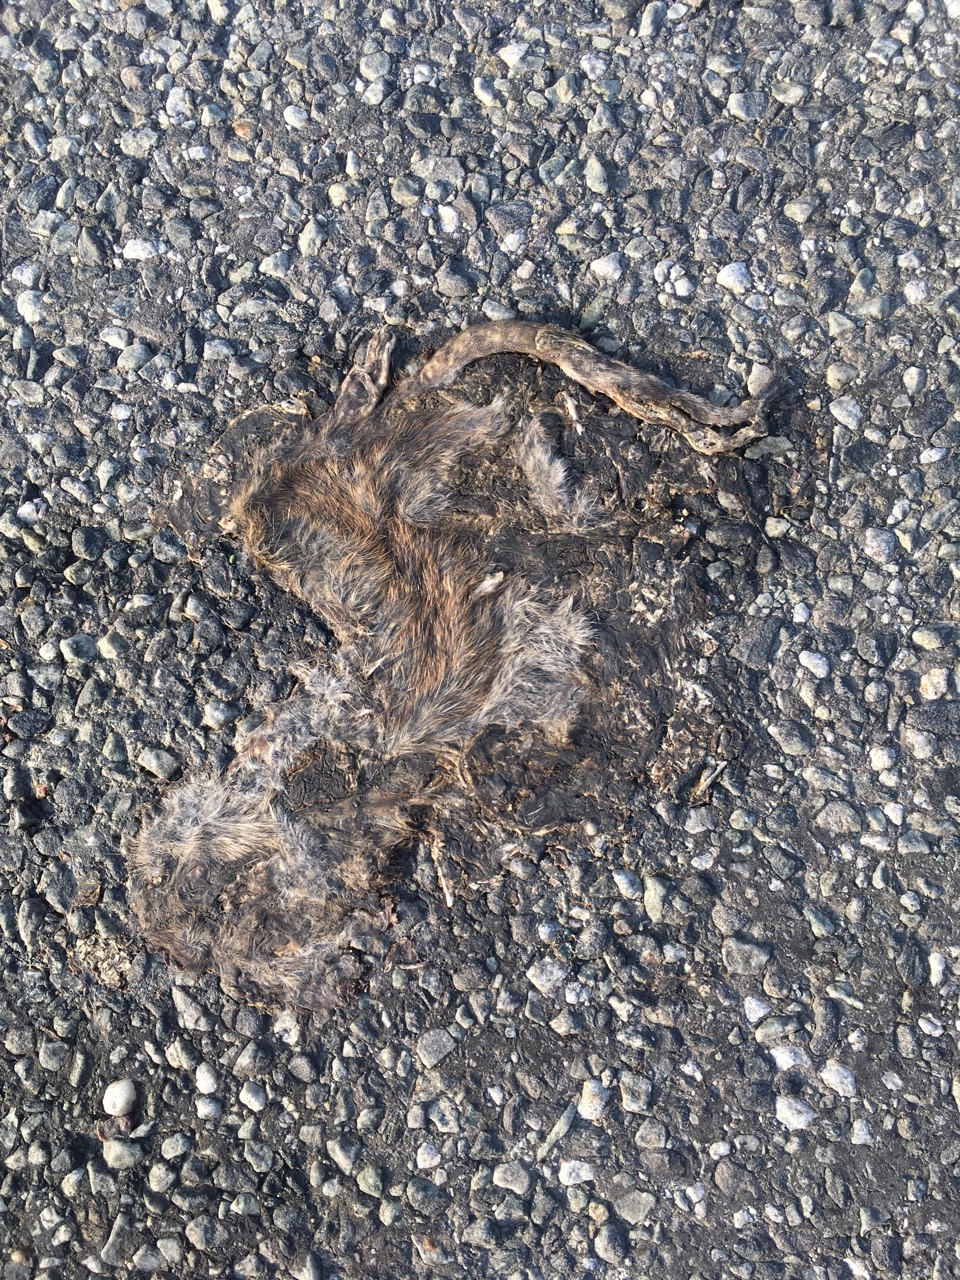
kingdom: Animalia
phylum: Chordata
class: Mammalia
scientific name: Mammalia
